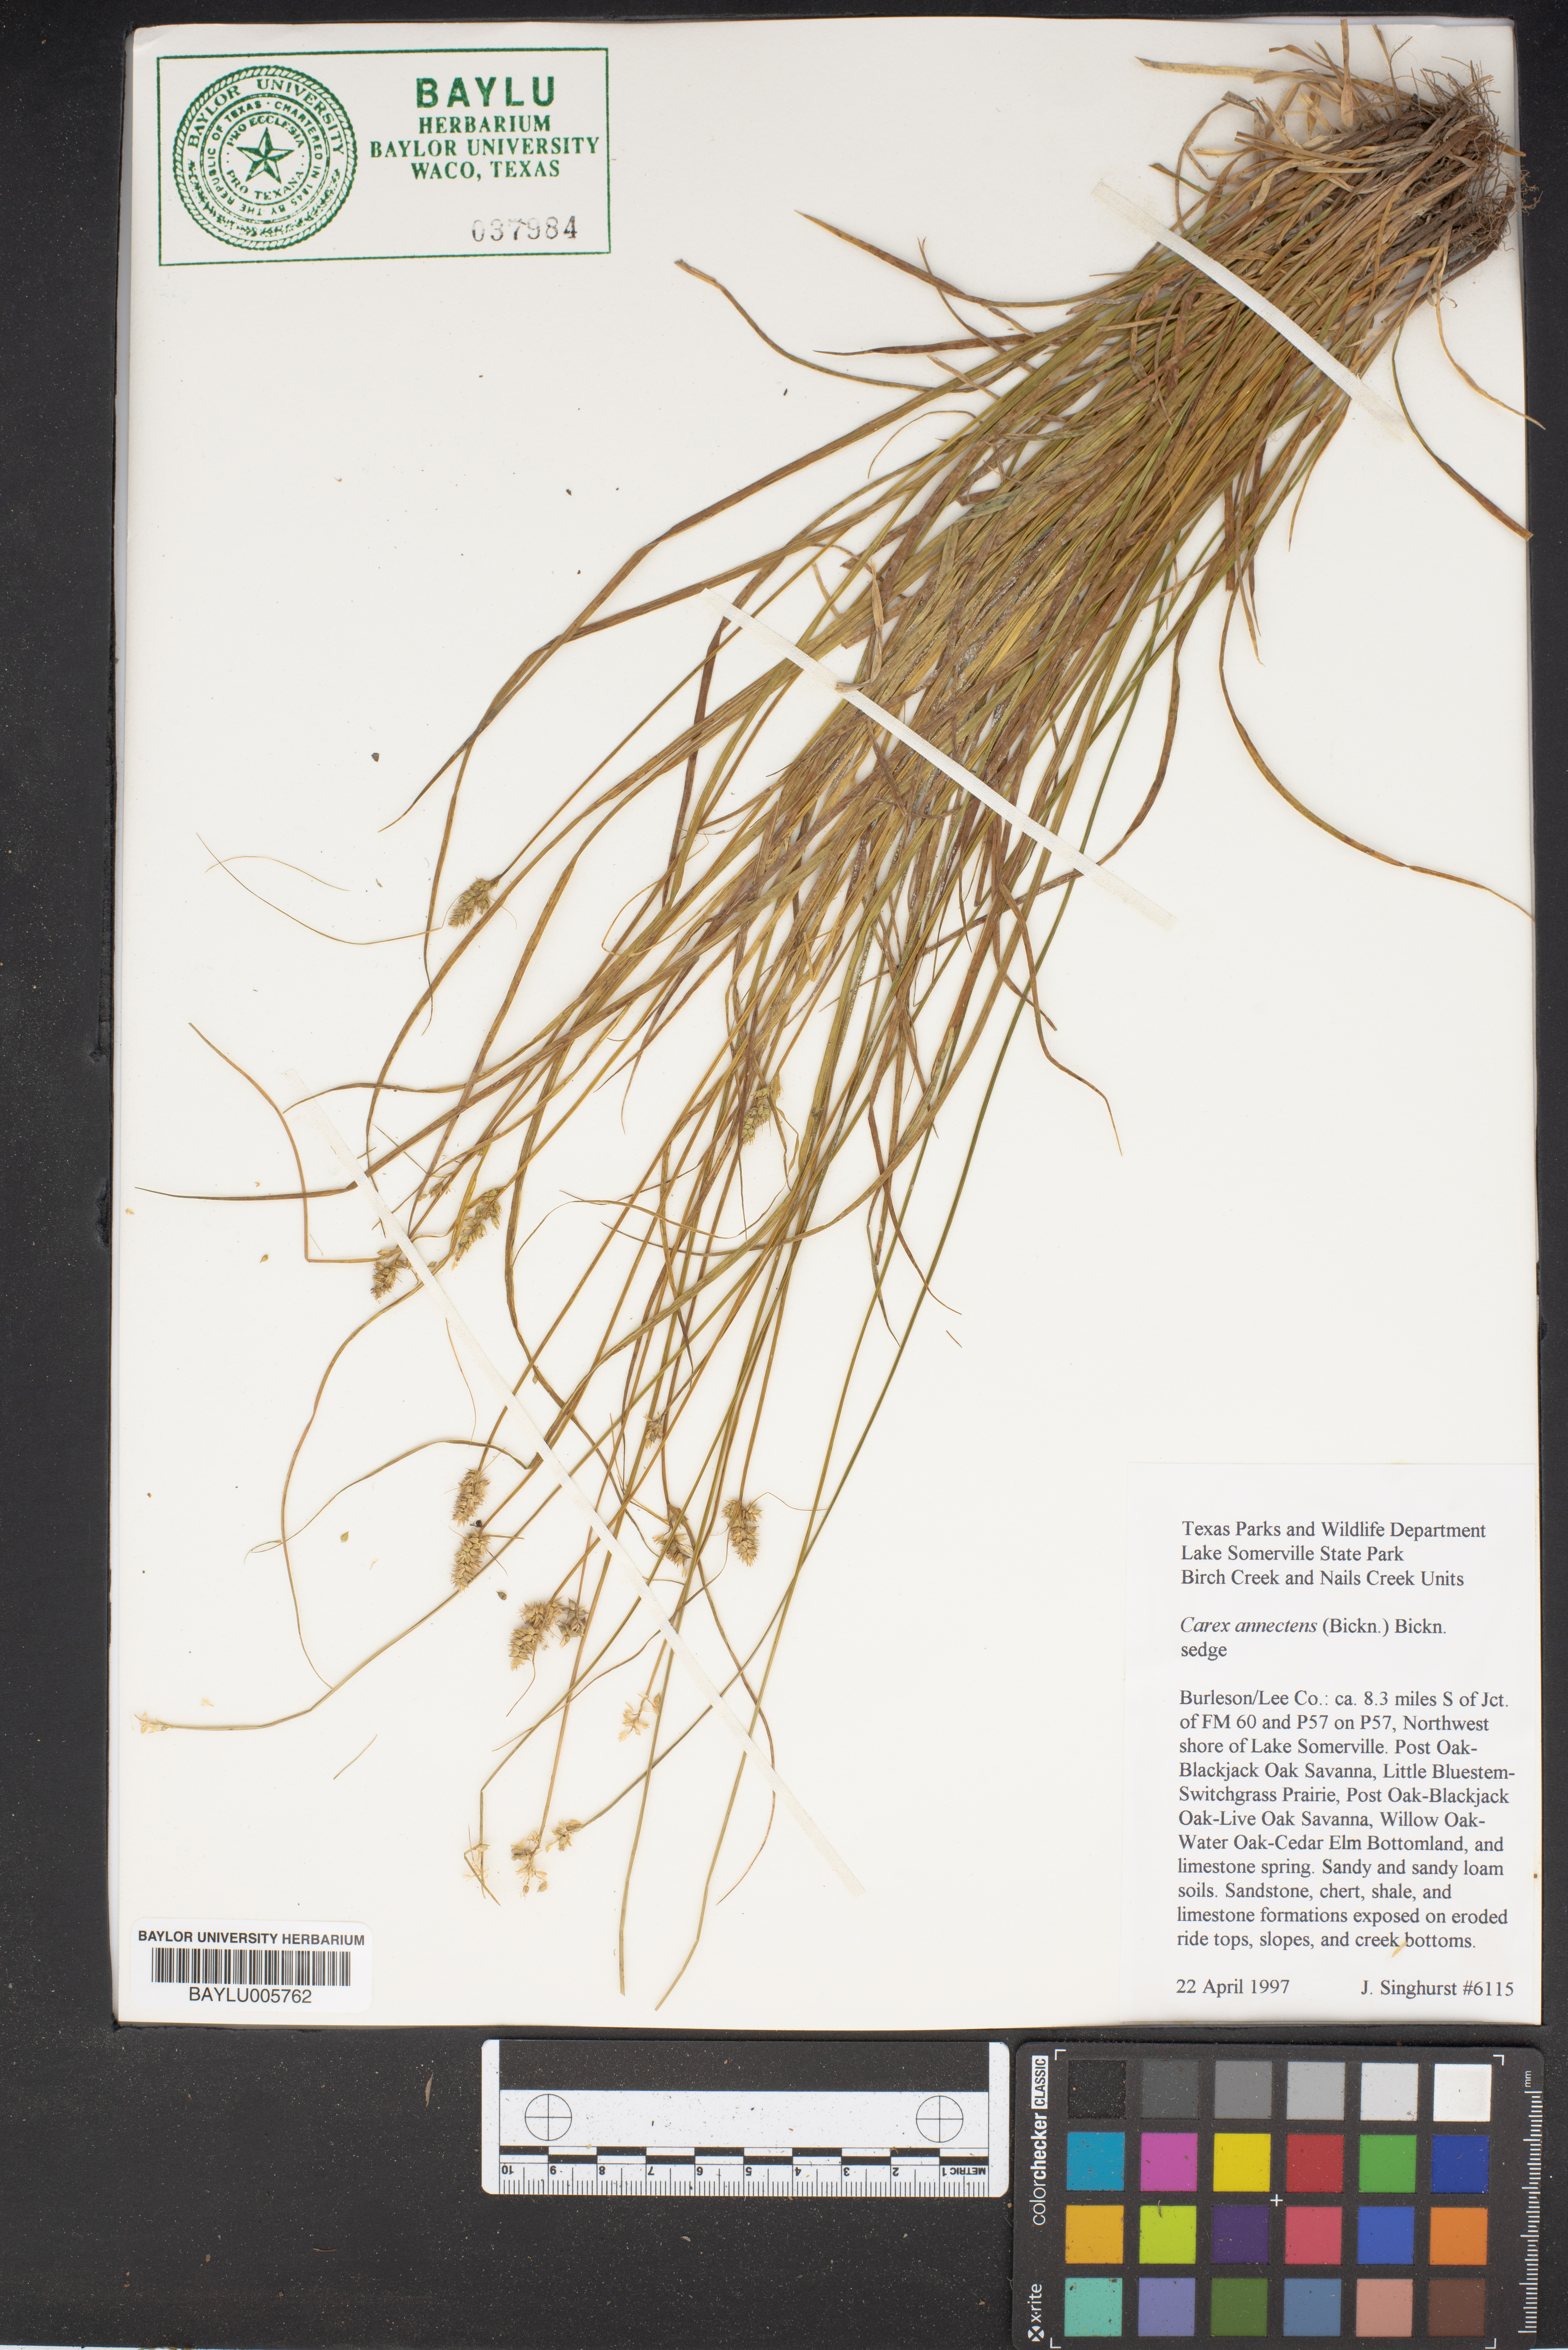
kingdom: Plantae
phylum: Tracheophyta
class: Liliopsida
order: Poales
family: Cyperaceae
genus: Carex
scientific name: Carex annectens
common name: Large fox sedge
